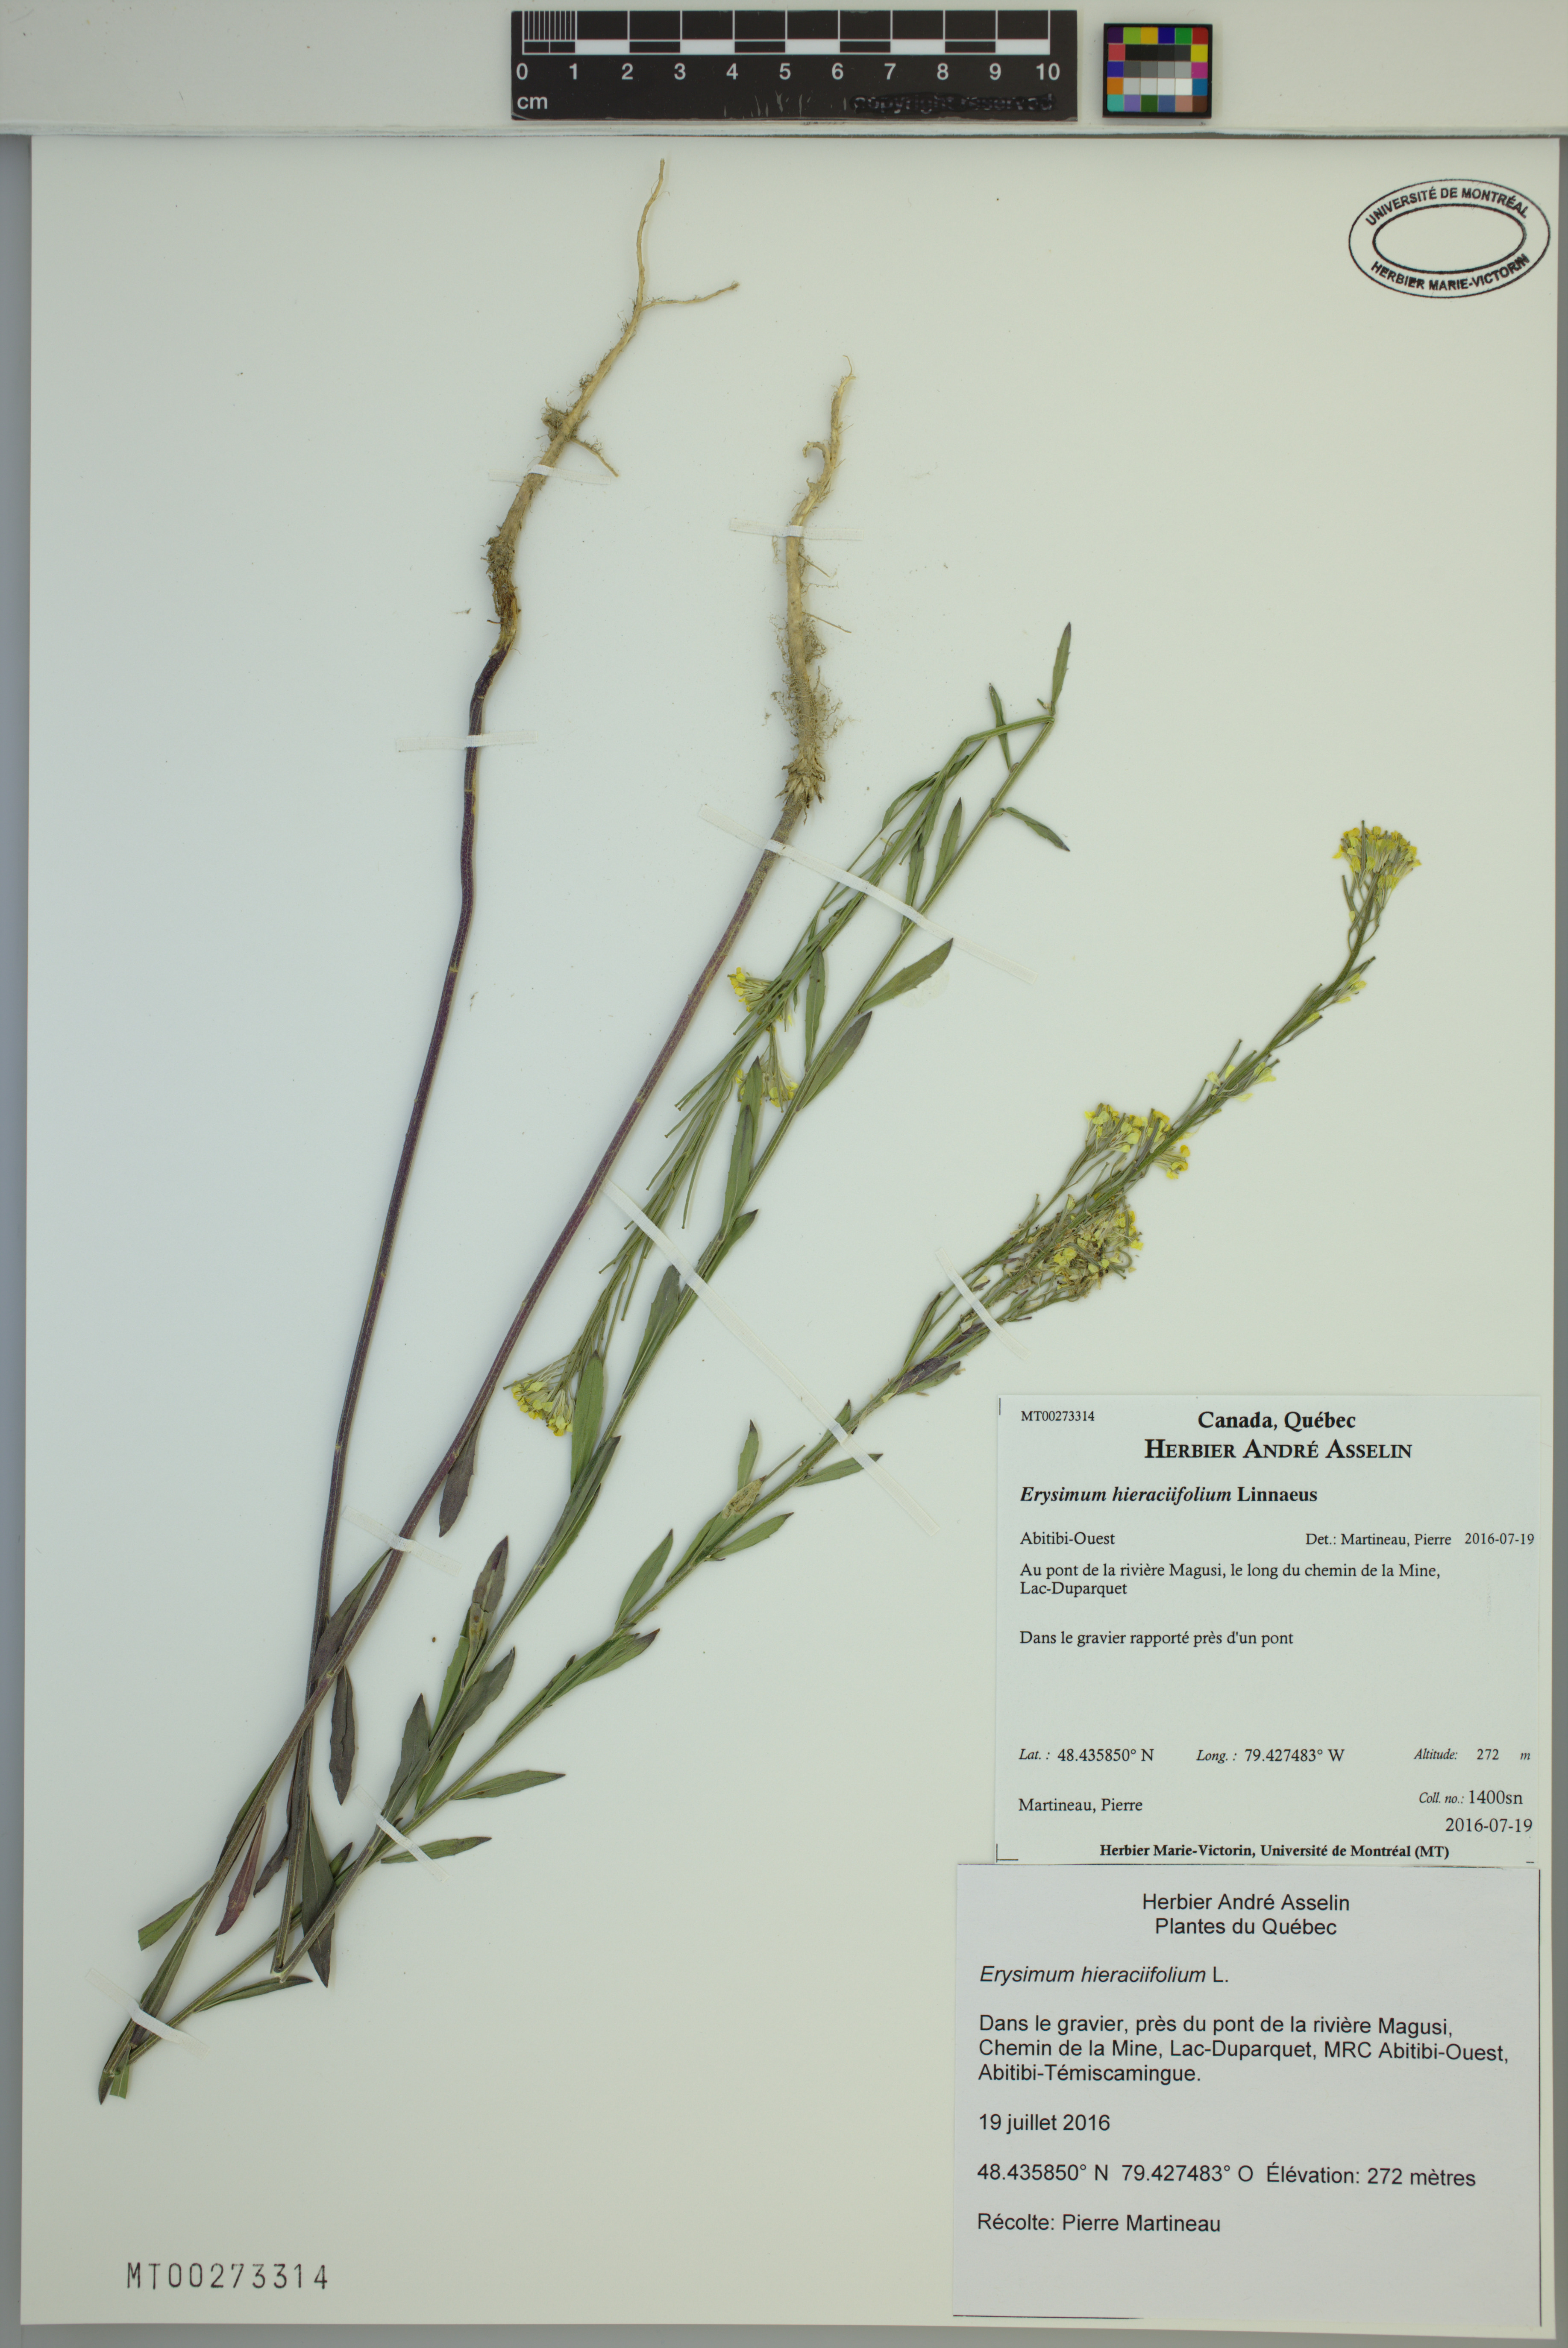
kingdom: Plantae
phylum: Tracheophyta
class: Magnoliopsida
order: Brassicales
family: Brassicaceae
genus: Erysimum
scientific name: Erysimum hieraciifolium
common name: European wallflower
